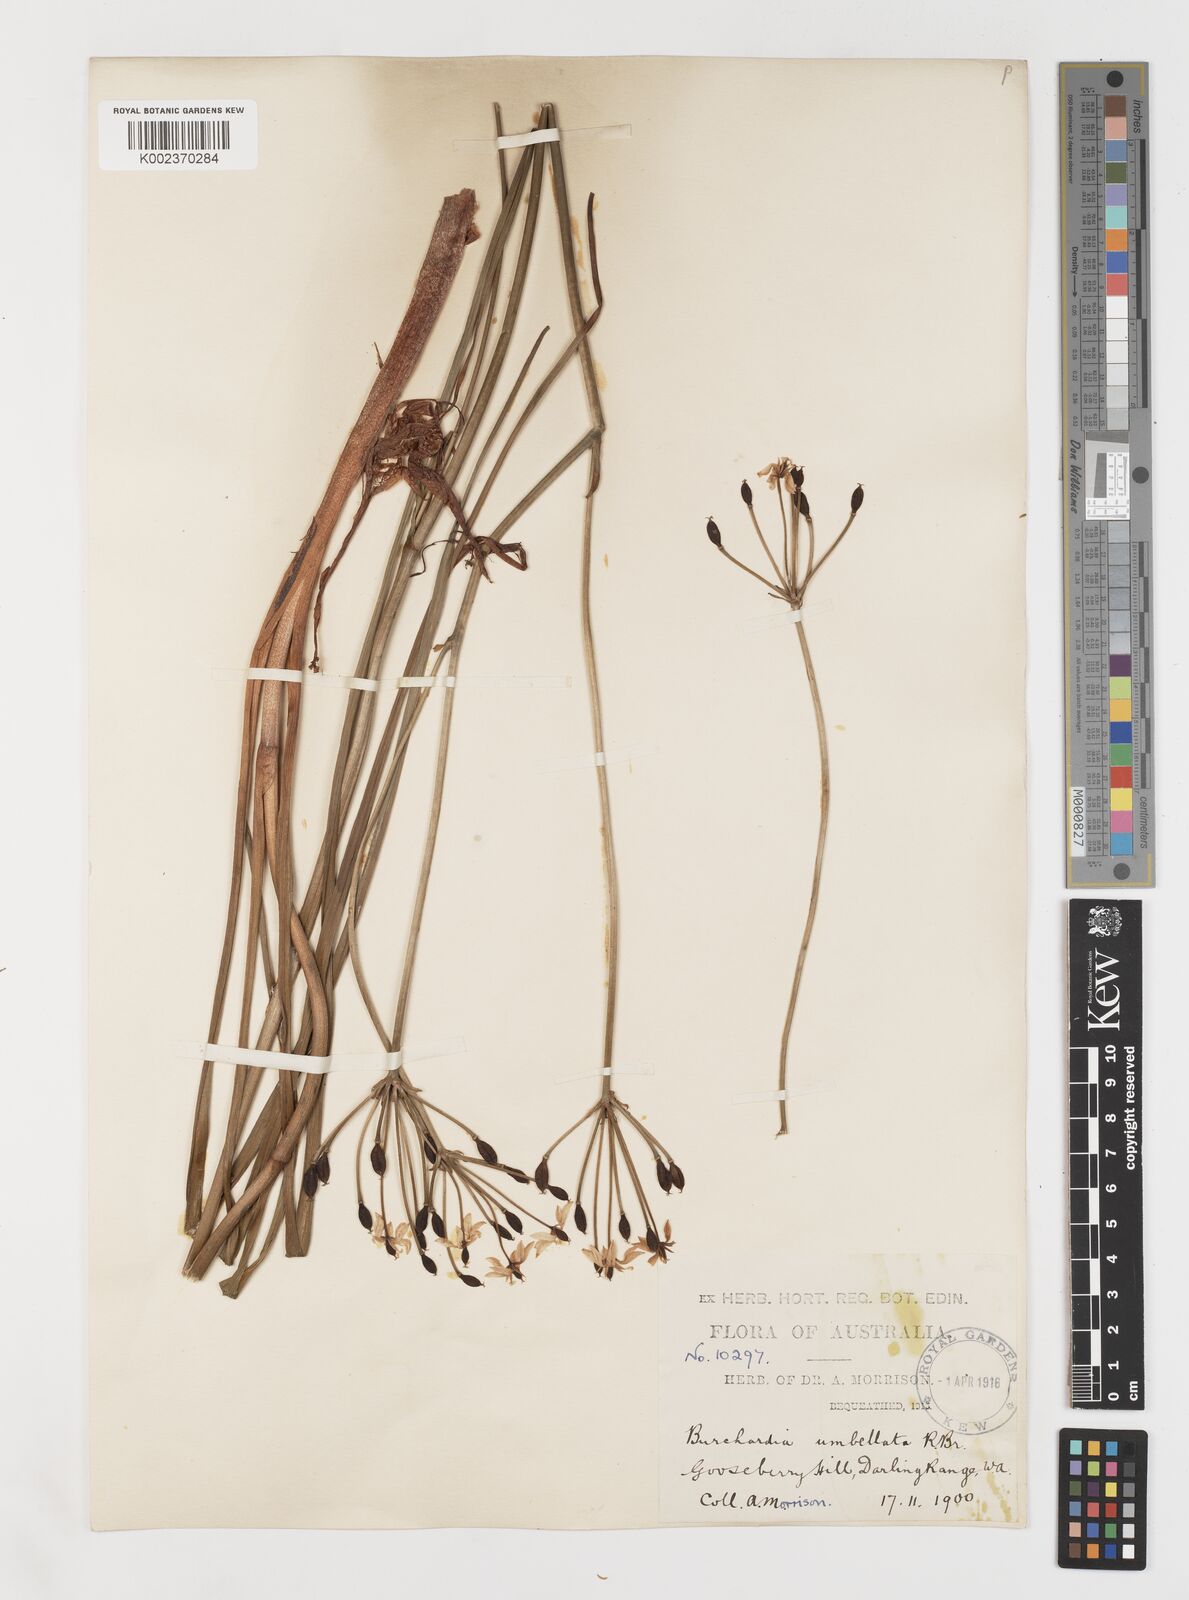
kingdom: Plantae
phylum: Tracheophyta
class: Liliopsida
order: Liliales
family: Colchicaceae
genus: Burchardia
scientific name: Burchardia umbellata
